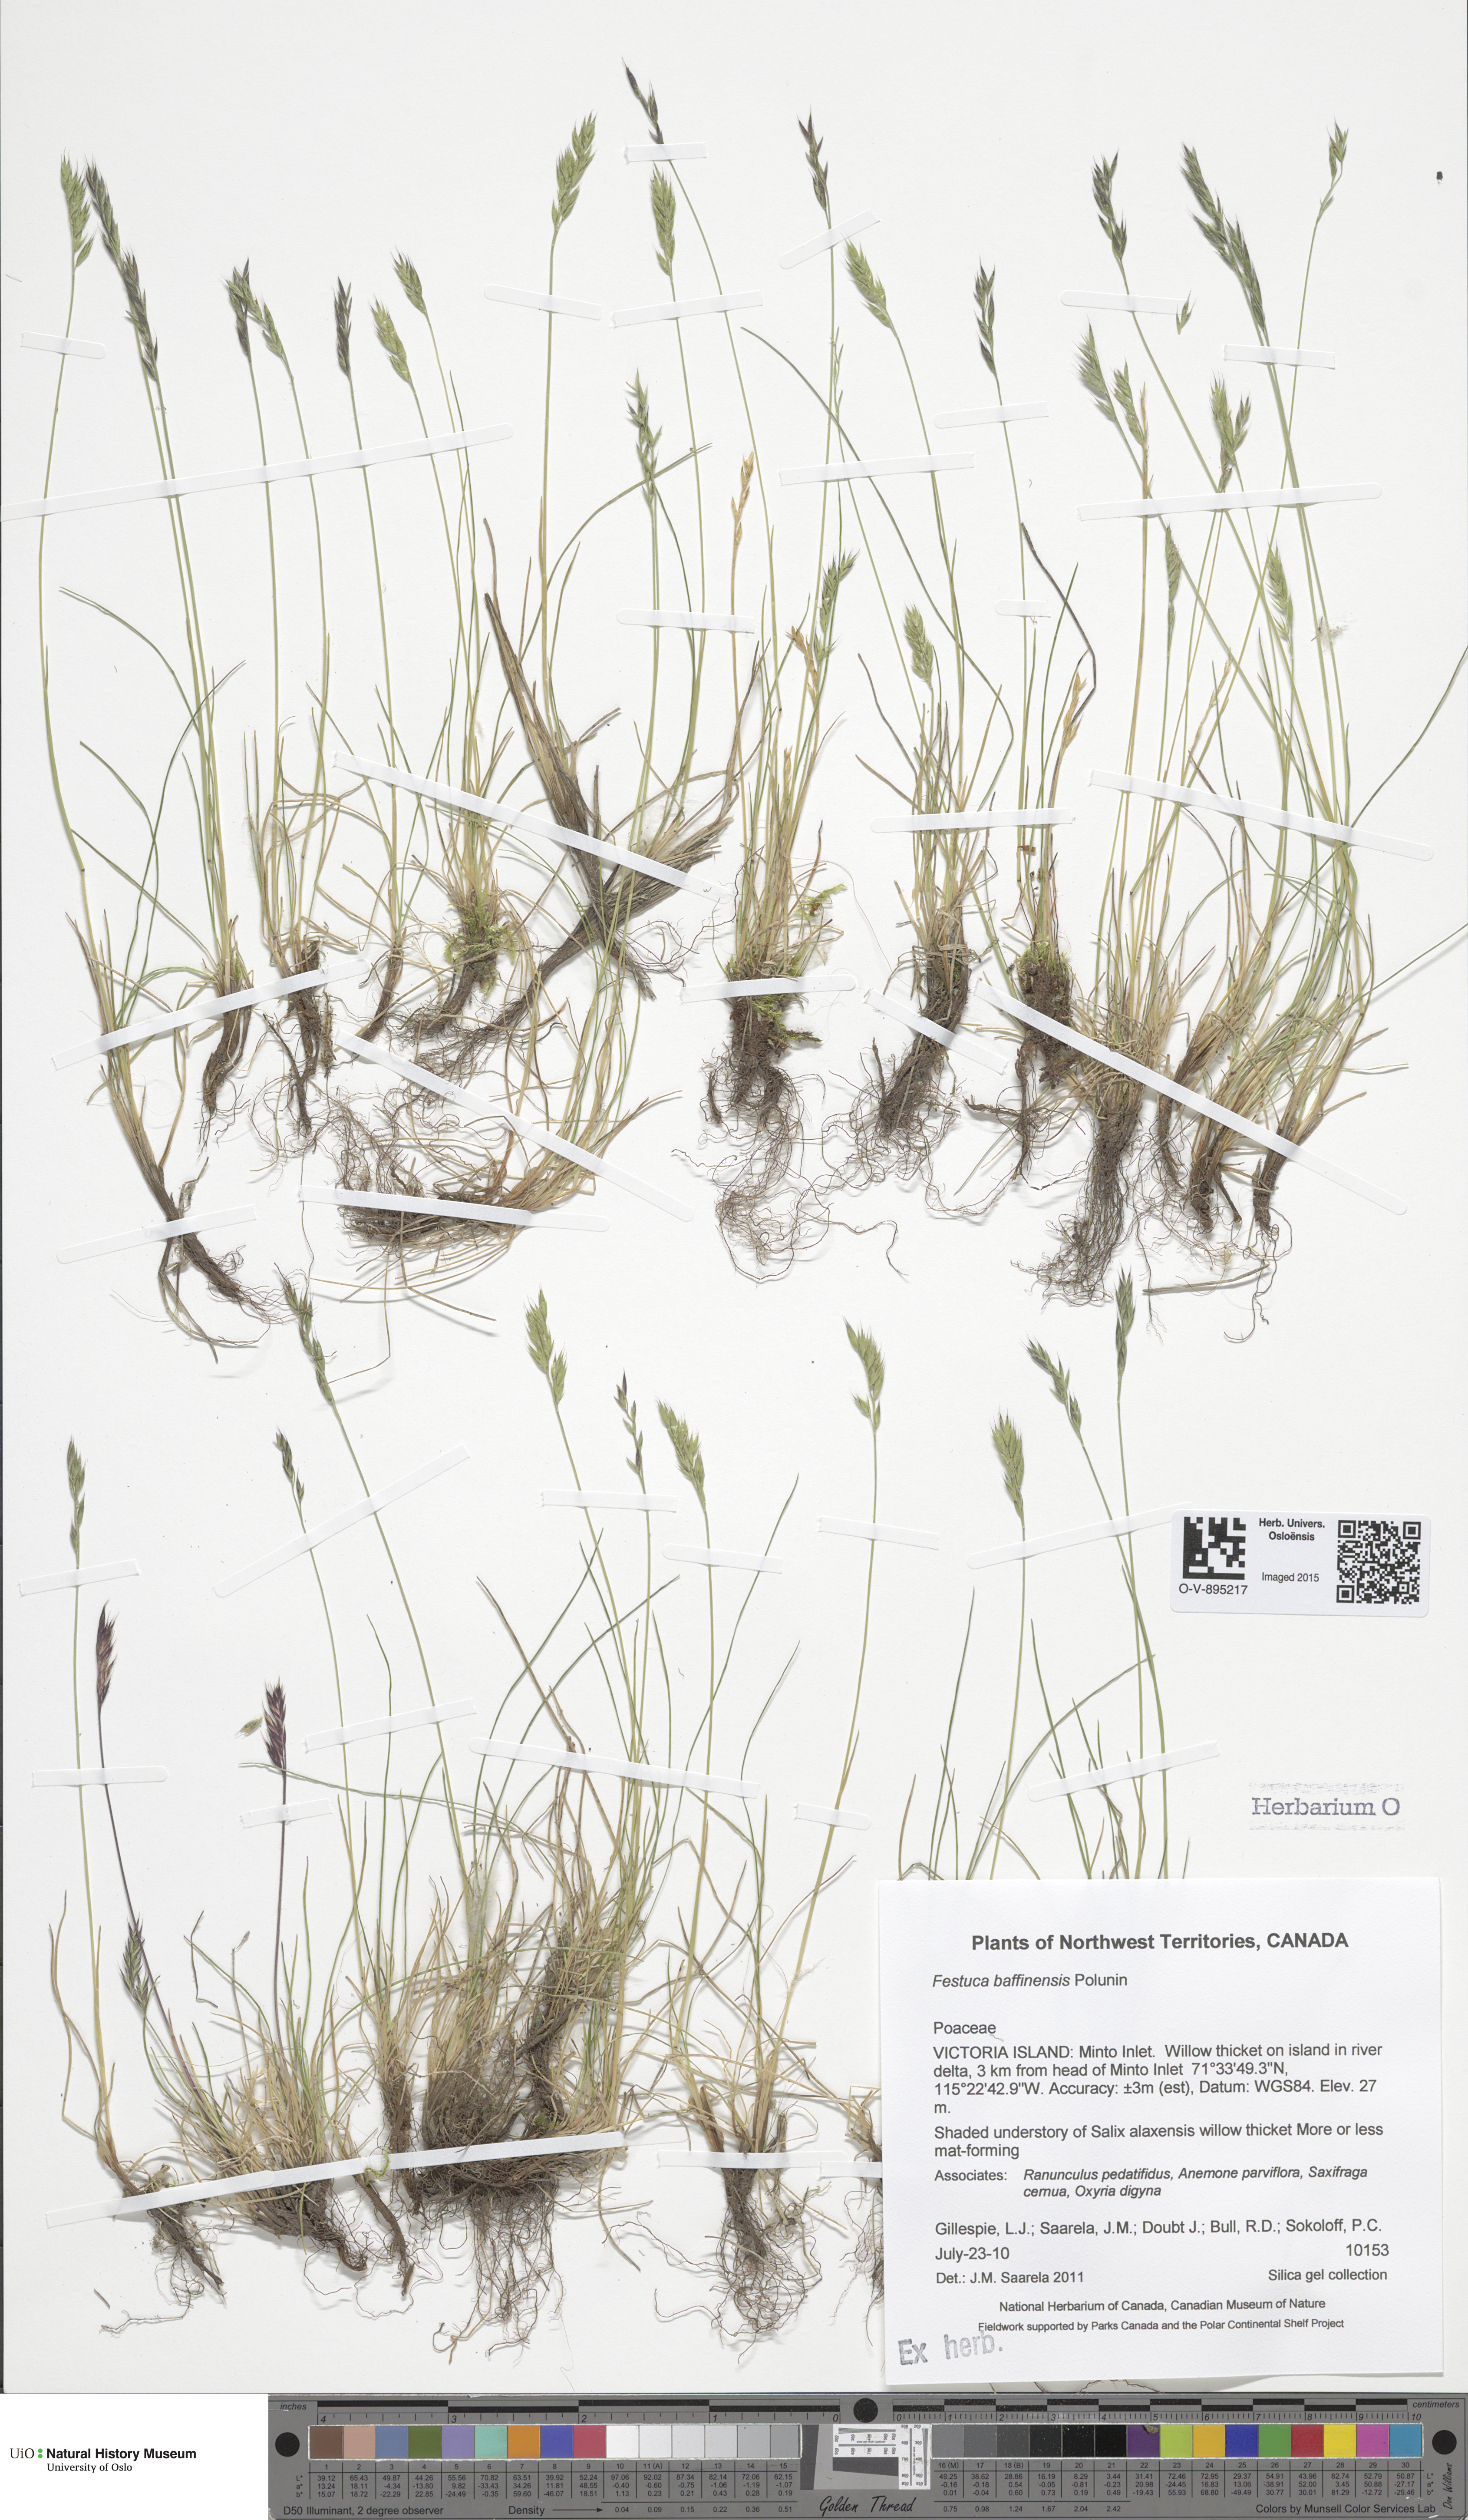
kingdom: Plantae
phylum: Tracheophyta
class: Liliopsida
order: Poales
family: Poaceae
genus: Festuca
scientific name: Festuca baffinensis
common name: Baffin island fescue
